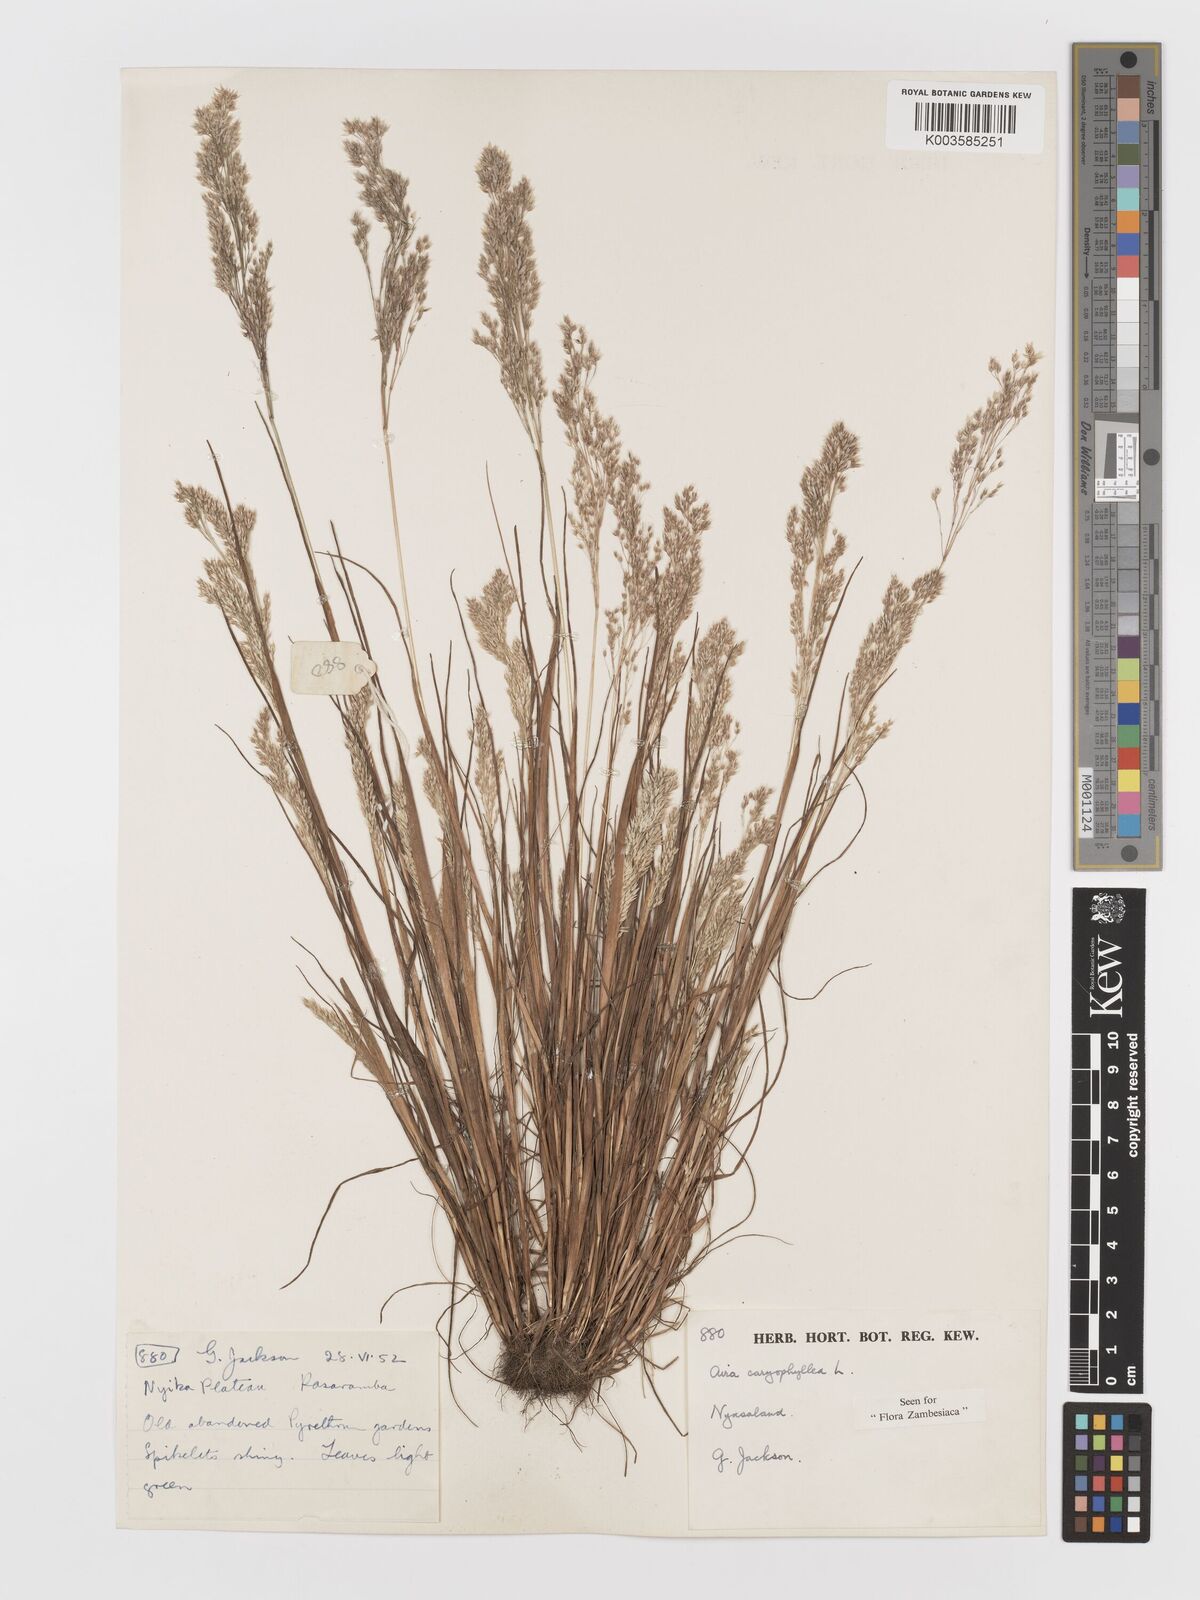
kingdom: Plantae
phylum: Tracheophyta
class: Liliopsida
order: Poales
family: Poaceae
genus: Aira
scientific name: Aira caryophyllea
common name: Silver hairgrass
